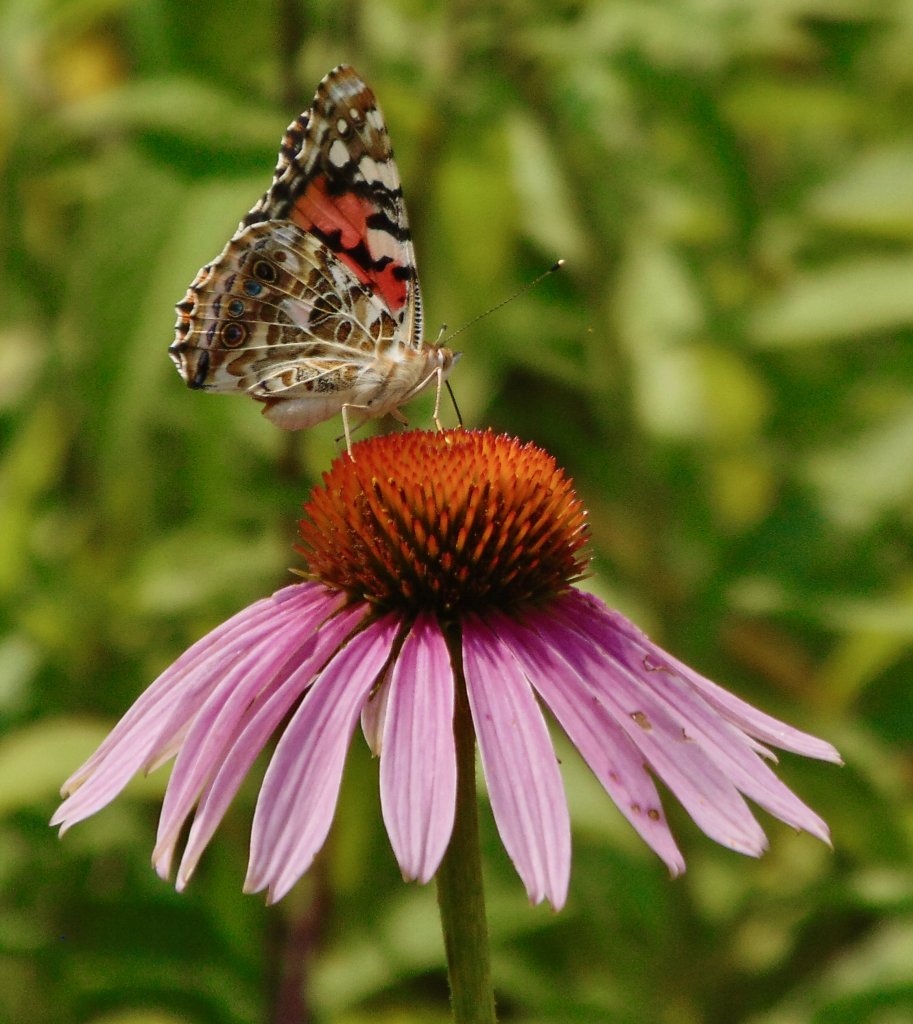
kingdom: Animalia
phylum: Arthropoda
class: Insecta
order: Lepidoptera
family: Nymphalidae
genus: Vanessa
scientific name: Vanessa cardui
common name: Painted Lady
